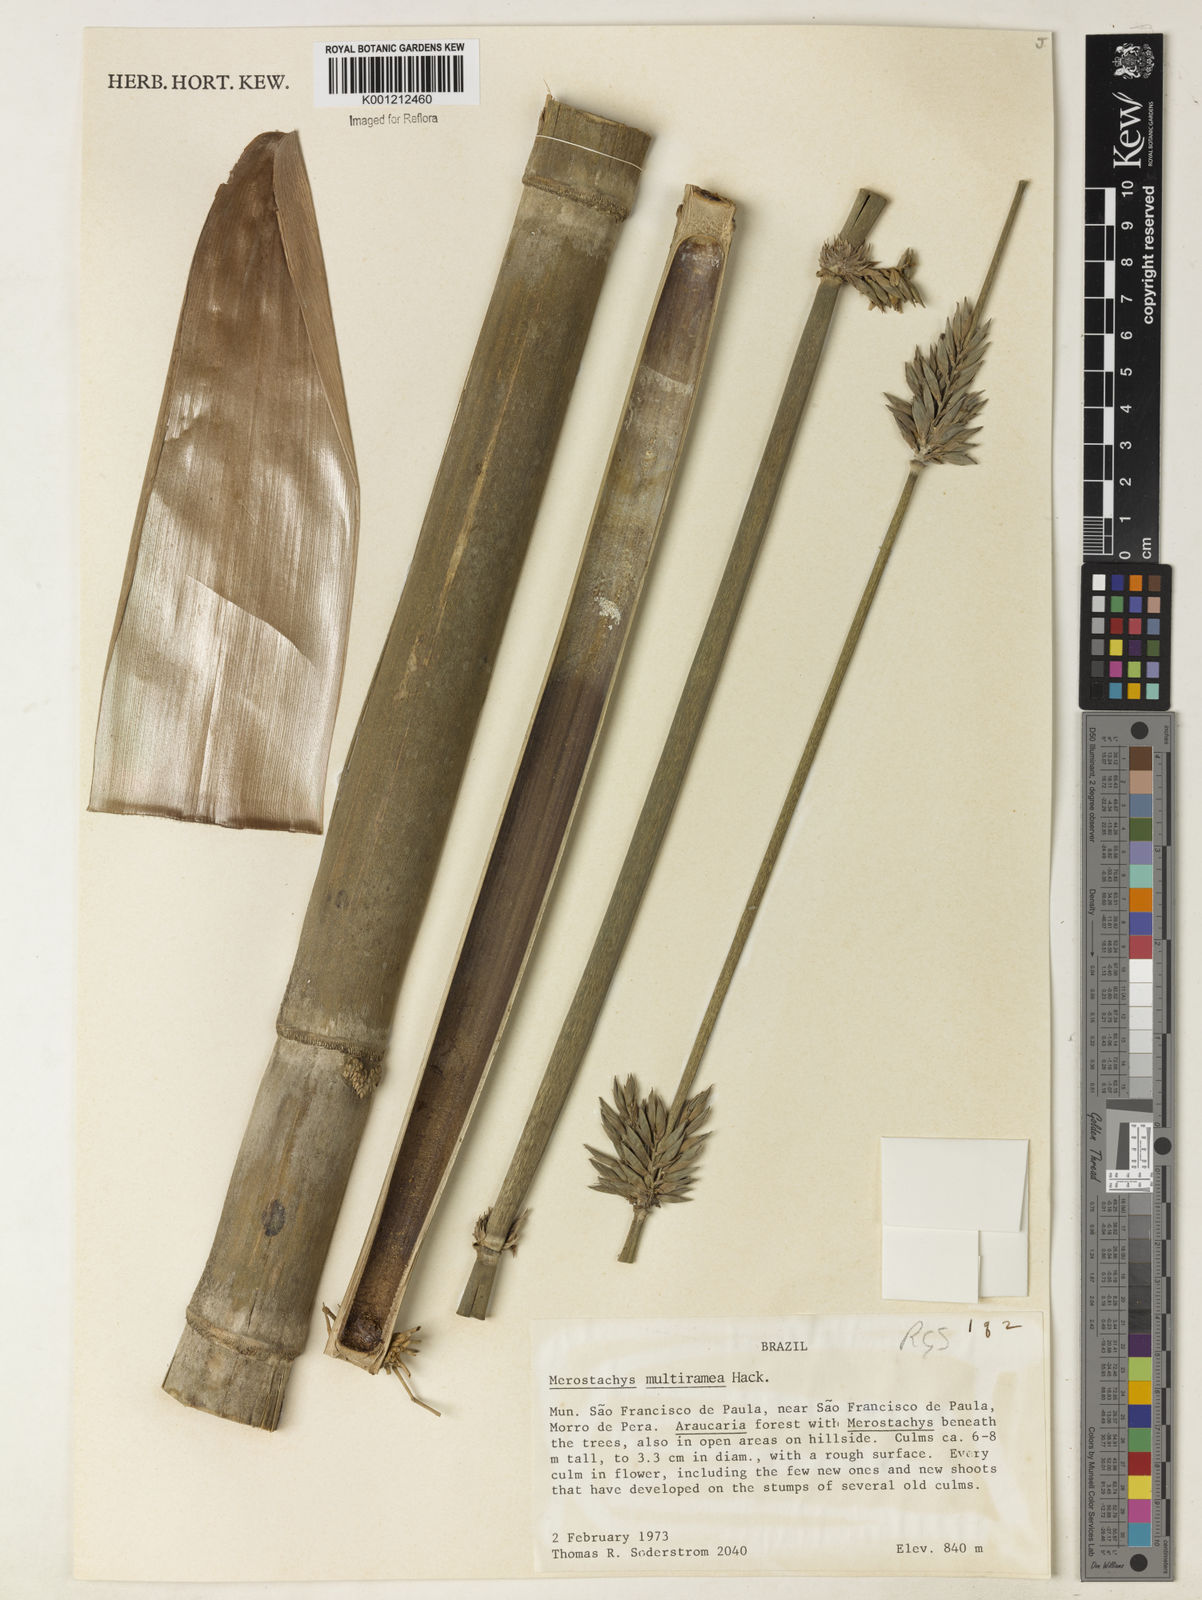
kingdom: Plantae
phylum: Tracheophyta
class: Liliopsida
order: Poales
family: Poaceae
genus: Merostachys
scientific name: Merostachys multiramea
